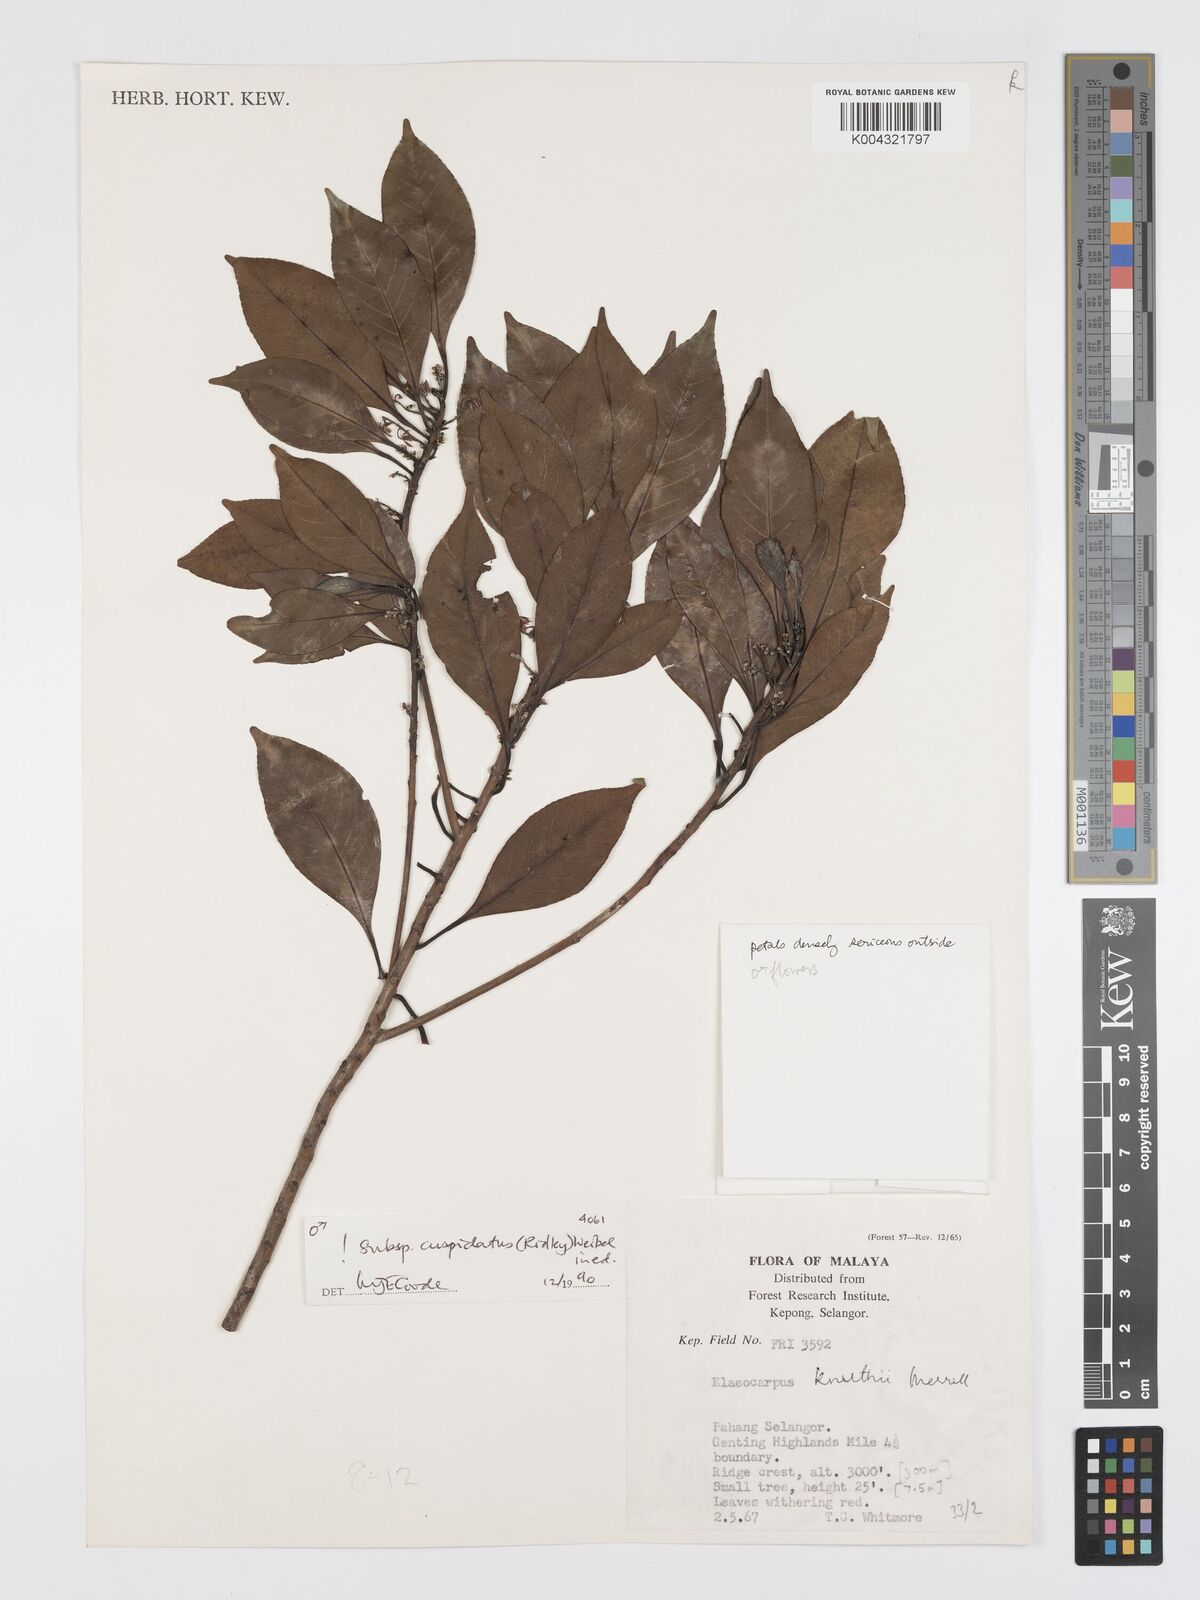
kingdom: Plantae
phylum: Tracheophyta
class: Magnoliopsida
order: Oxalidales
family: Elaeocarpaceae
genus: Elaeocarpus
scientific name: Elaeocarpus knuthii
